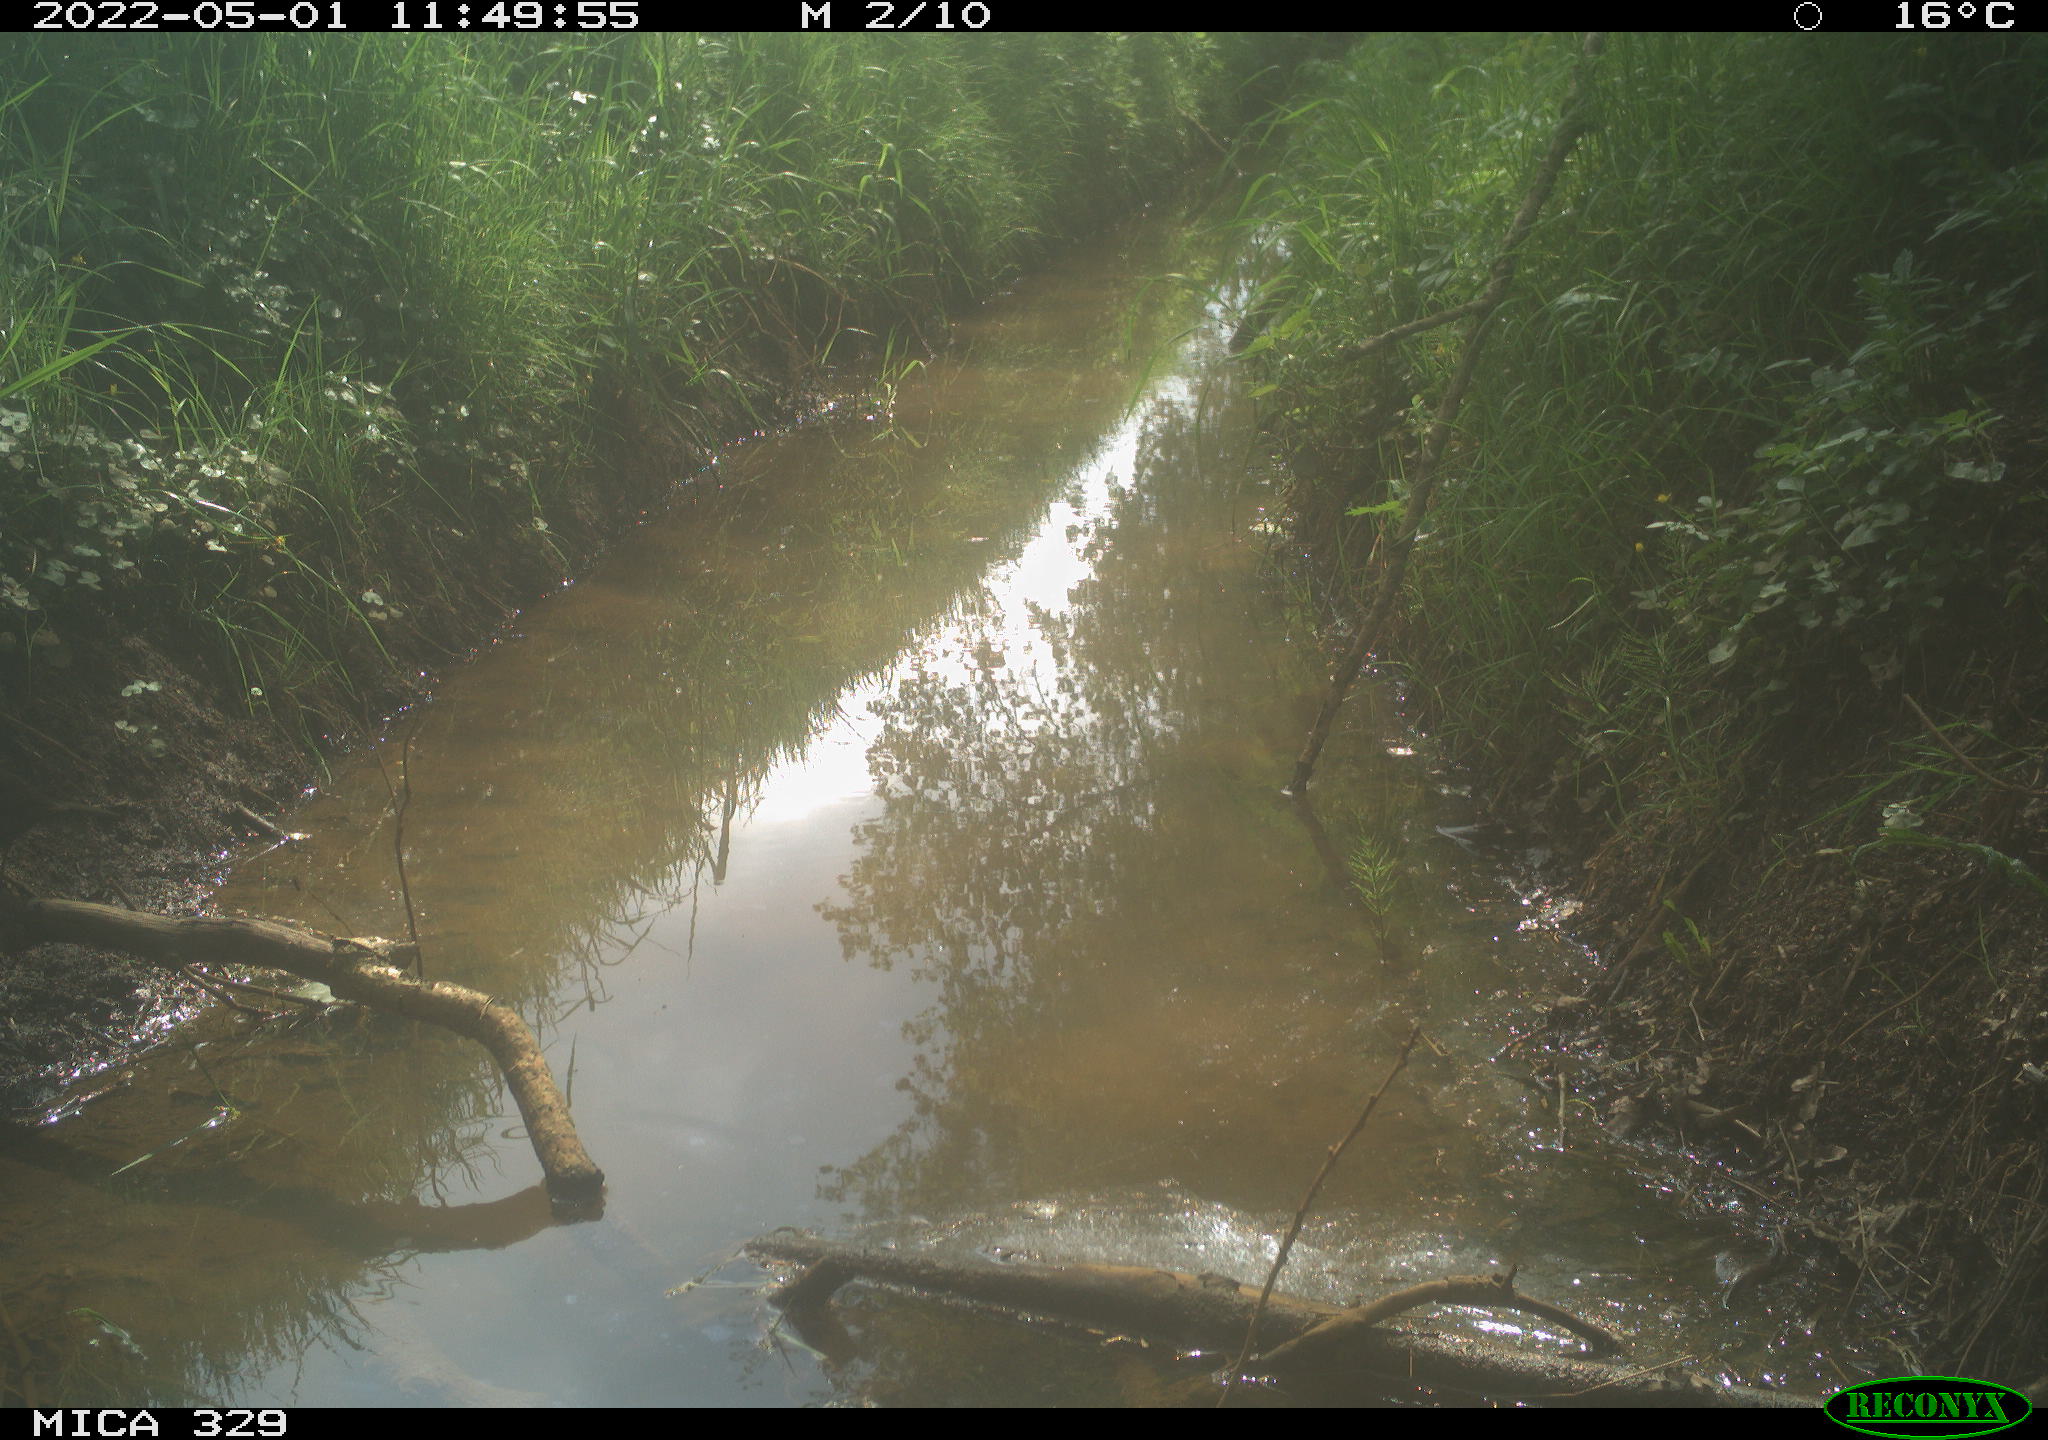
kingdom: Animalia
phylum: Chordata
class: Aves
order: Passeriformes
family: Turdidae
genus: Turdus
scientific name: Turdus merula
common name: Common blackbird
